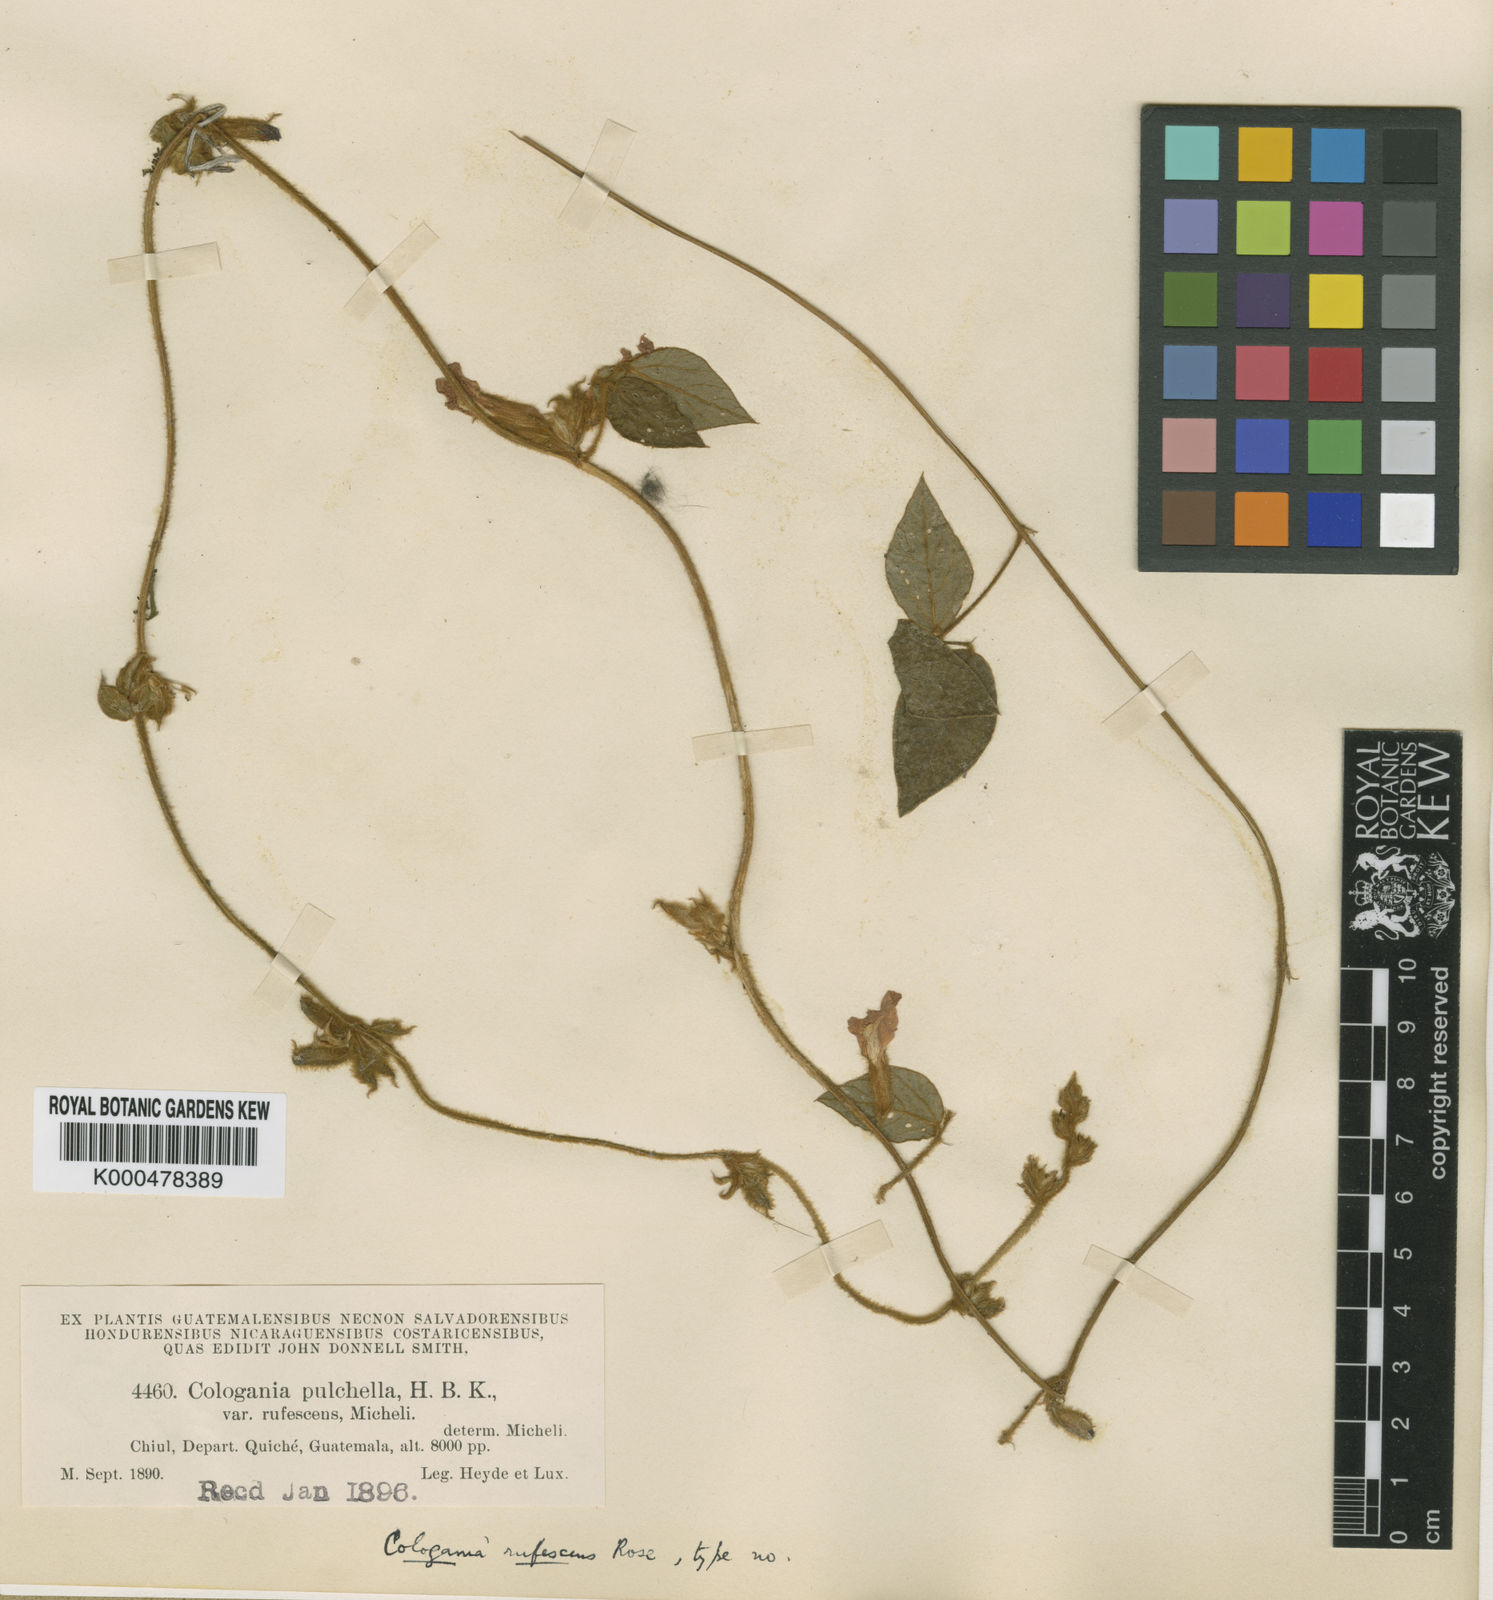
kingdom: Plantae
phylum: Tracheophyta
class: Magnoliopsida
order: Fabales
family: Fabaceae
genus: Cologania
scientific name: Cologania broussonetii
